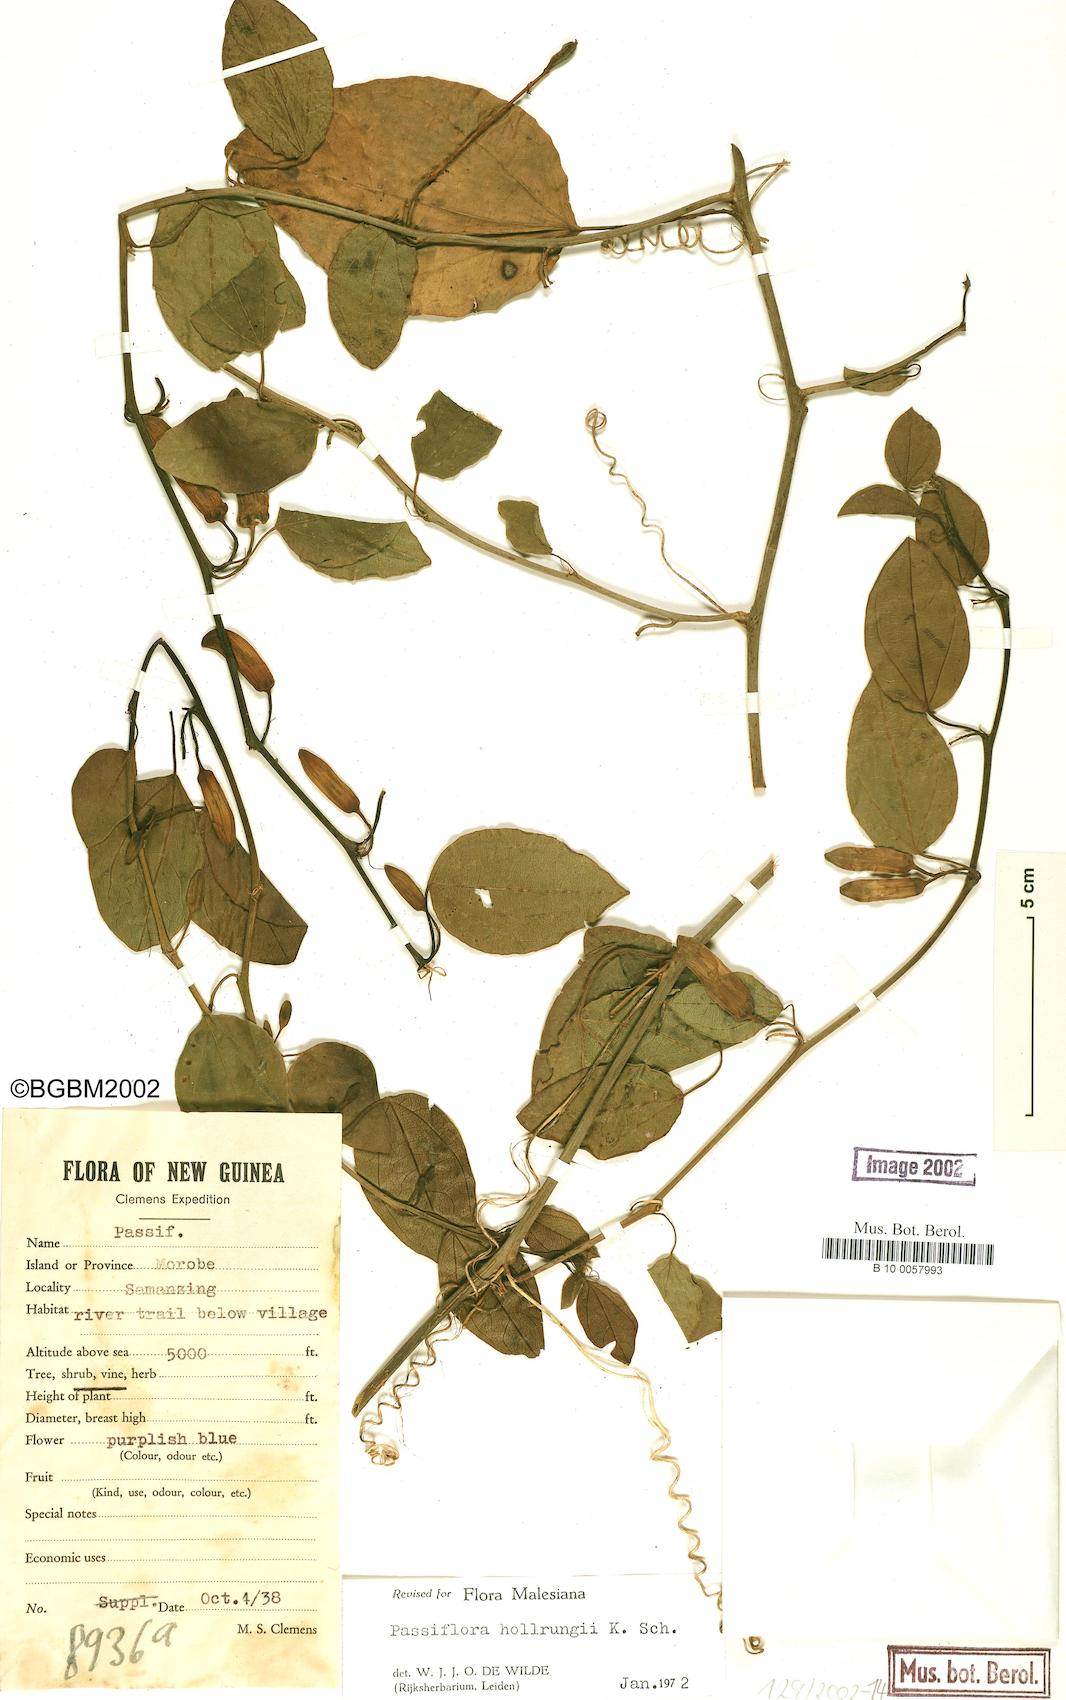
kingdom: Plantae
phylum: Tracheophyta
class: Magnoliopsida
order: Malpighiales
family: Passifloraceae
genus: Passiflora
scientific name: Passiflora hollrungii
